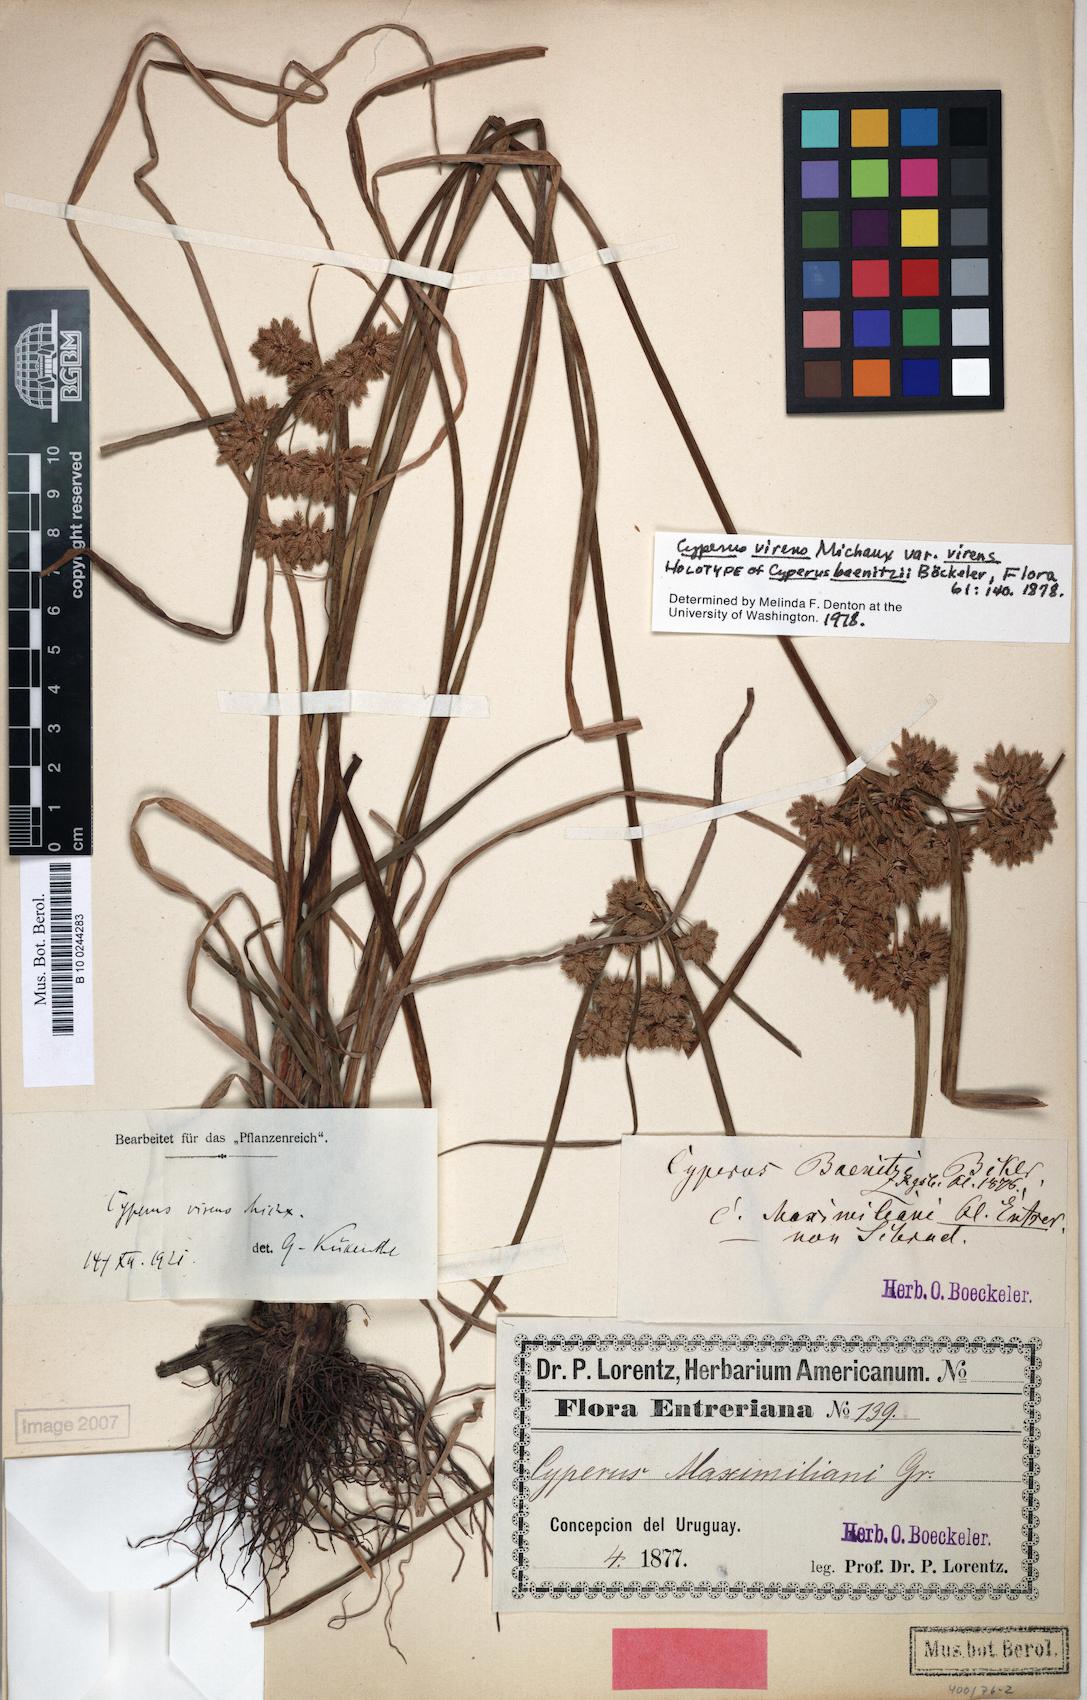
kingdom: Plantae
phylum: Tracheophyta
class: Liliopsida
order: Poales
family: Cyperaceae
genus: Cyperus
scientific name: Cyperus virens
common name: Green flatsedge
